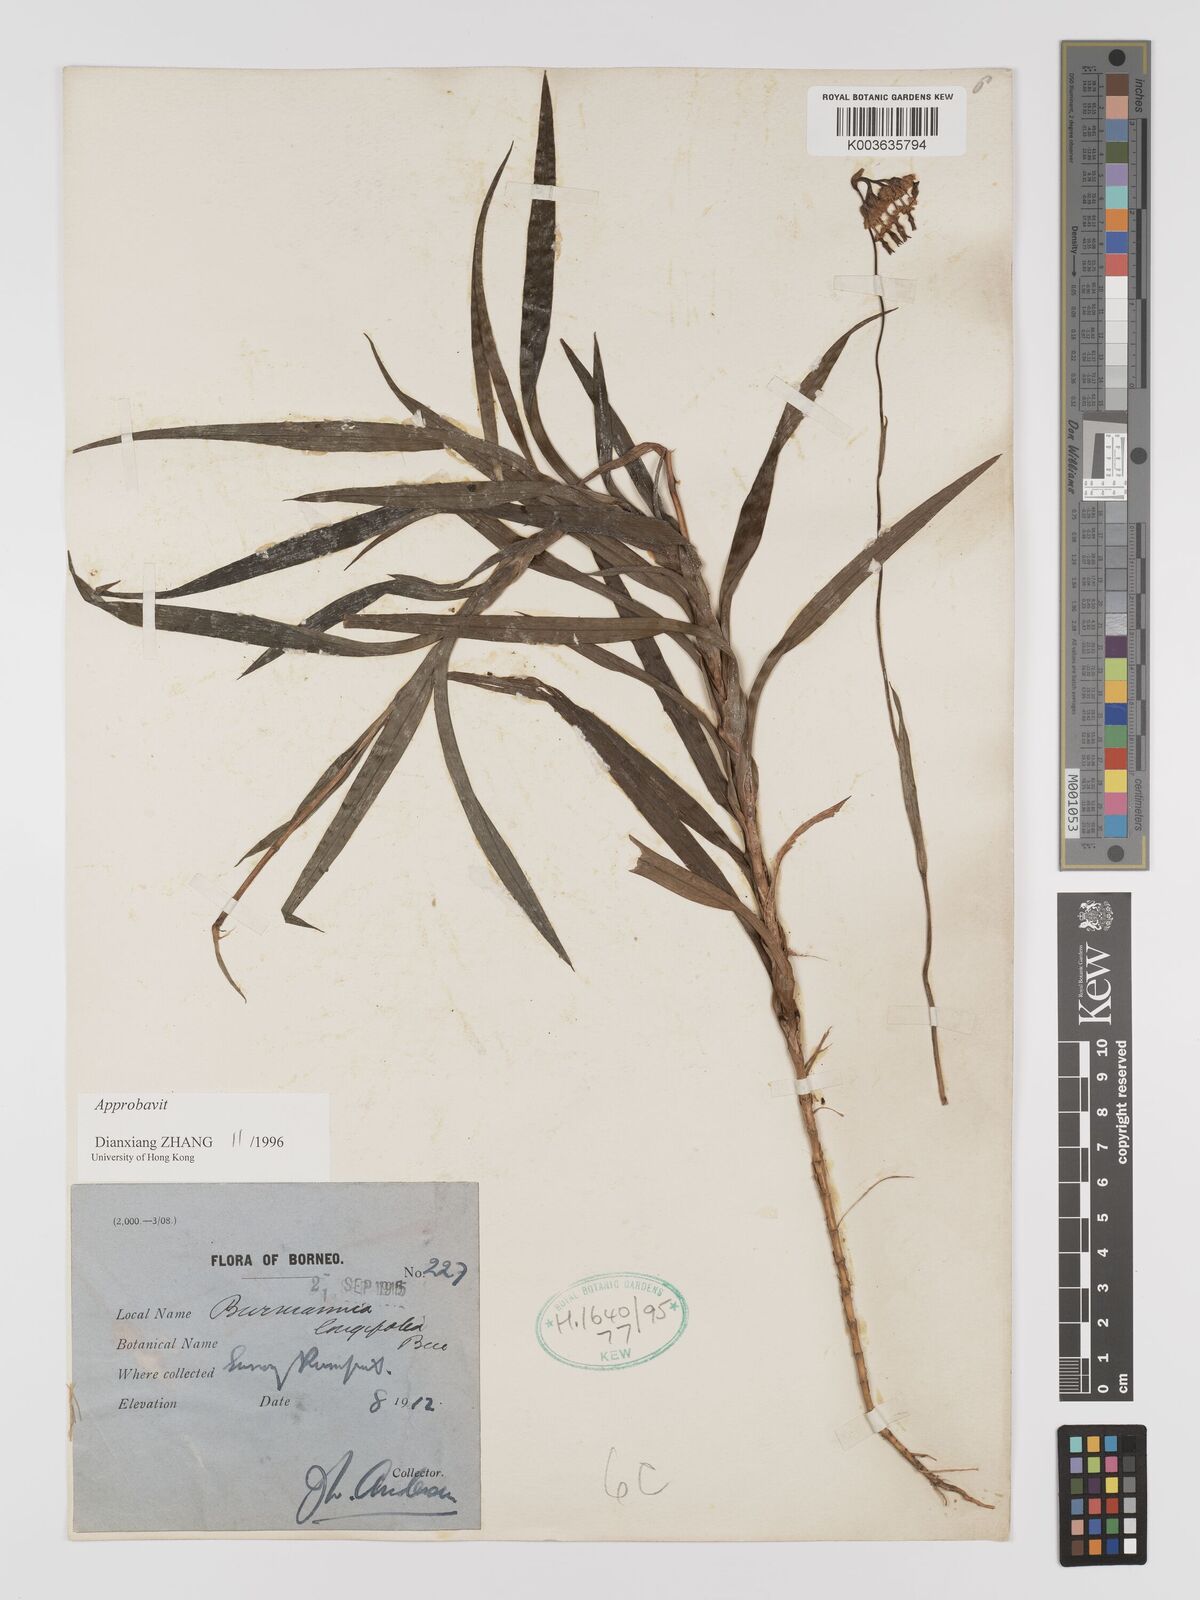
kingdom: Plantae
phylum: Tracheophyta
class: Liliopsida
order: Dioscoreales
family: Burmanniaceae
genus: Burmannia
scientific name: Burmannia longifolia
